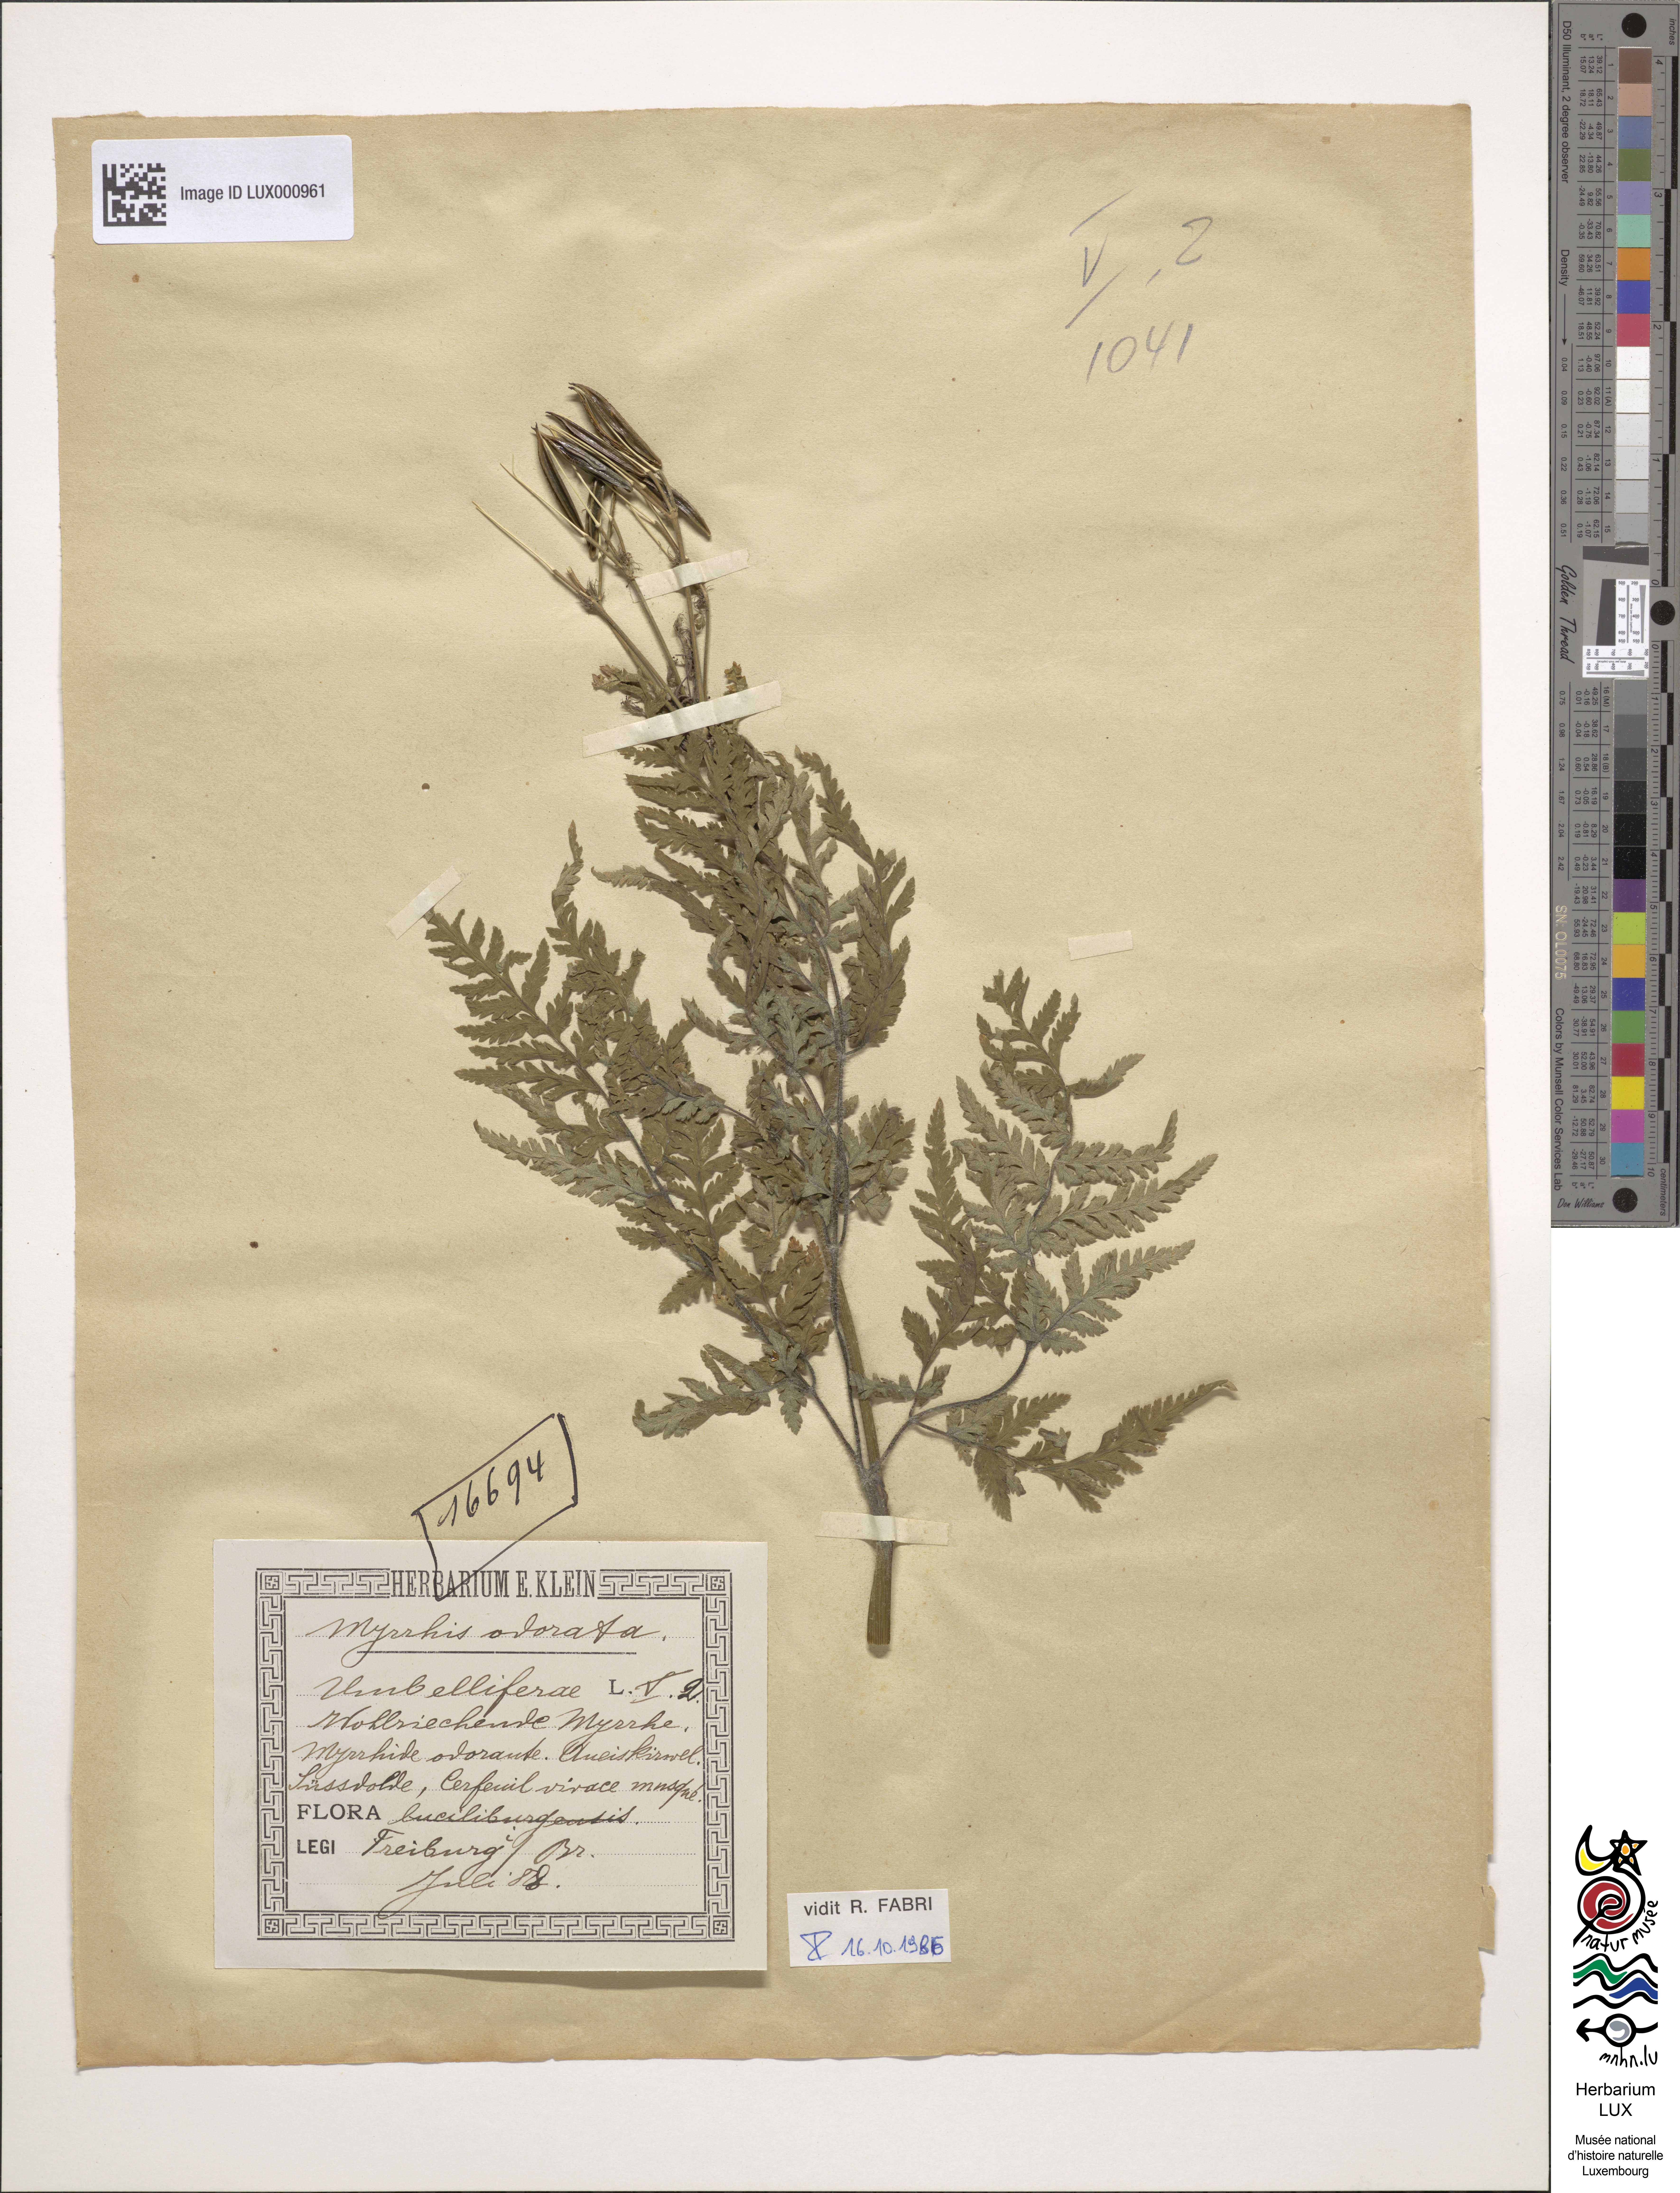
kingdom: Plantae
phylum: Tracheophyta
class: Magnoliopsida
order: Apiales
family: Apiaceae
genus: Myrrhis
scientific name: Myrrhis odorata
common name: Sweet cicely
